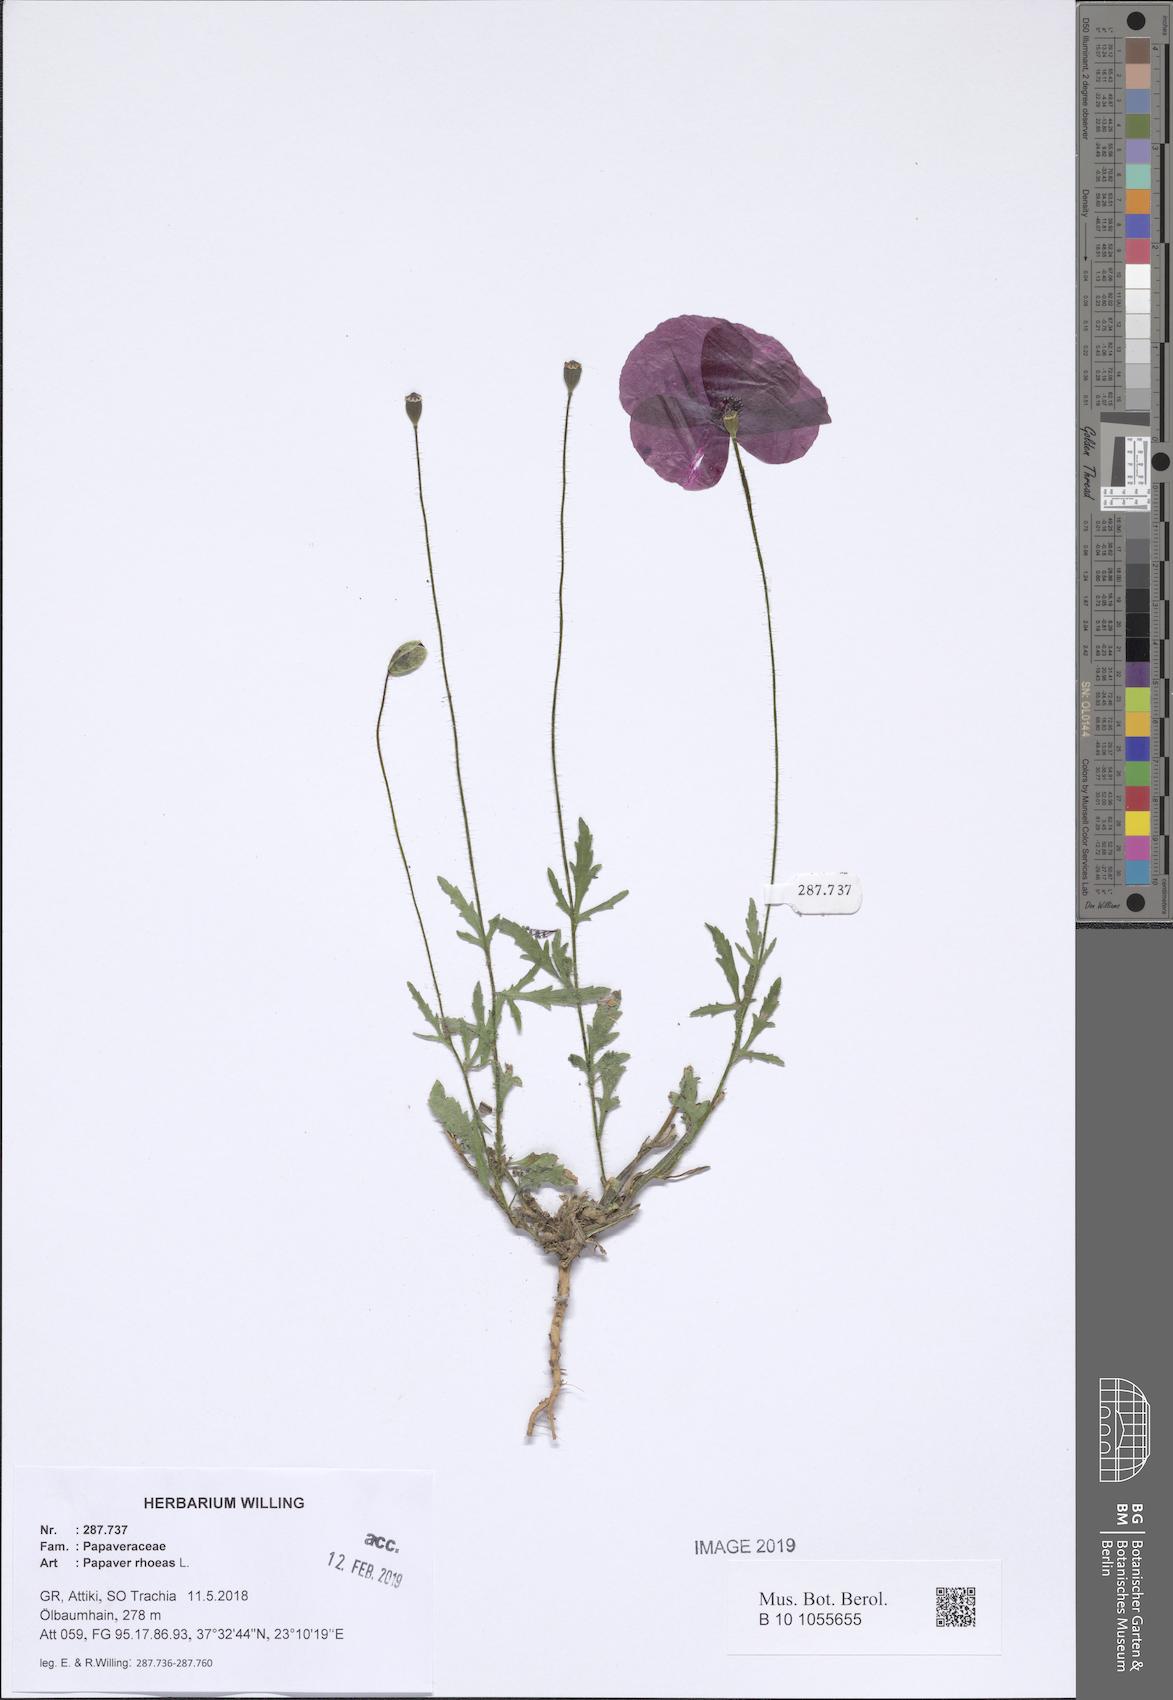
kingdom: Plantae
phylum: Tracheophyta
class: Magnoliopsida
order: Ranunculales
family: Papaveraceae
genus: Papaver
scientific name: Papaver rhoeas
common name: Corn poppy
